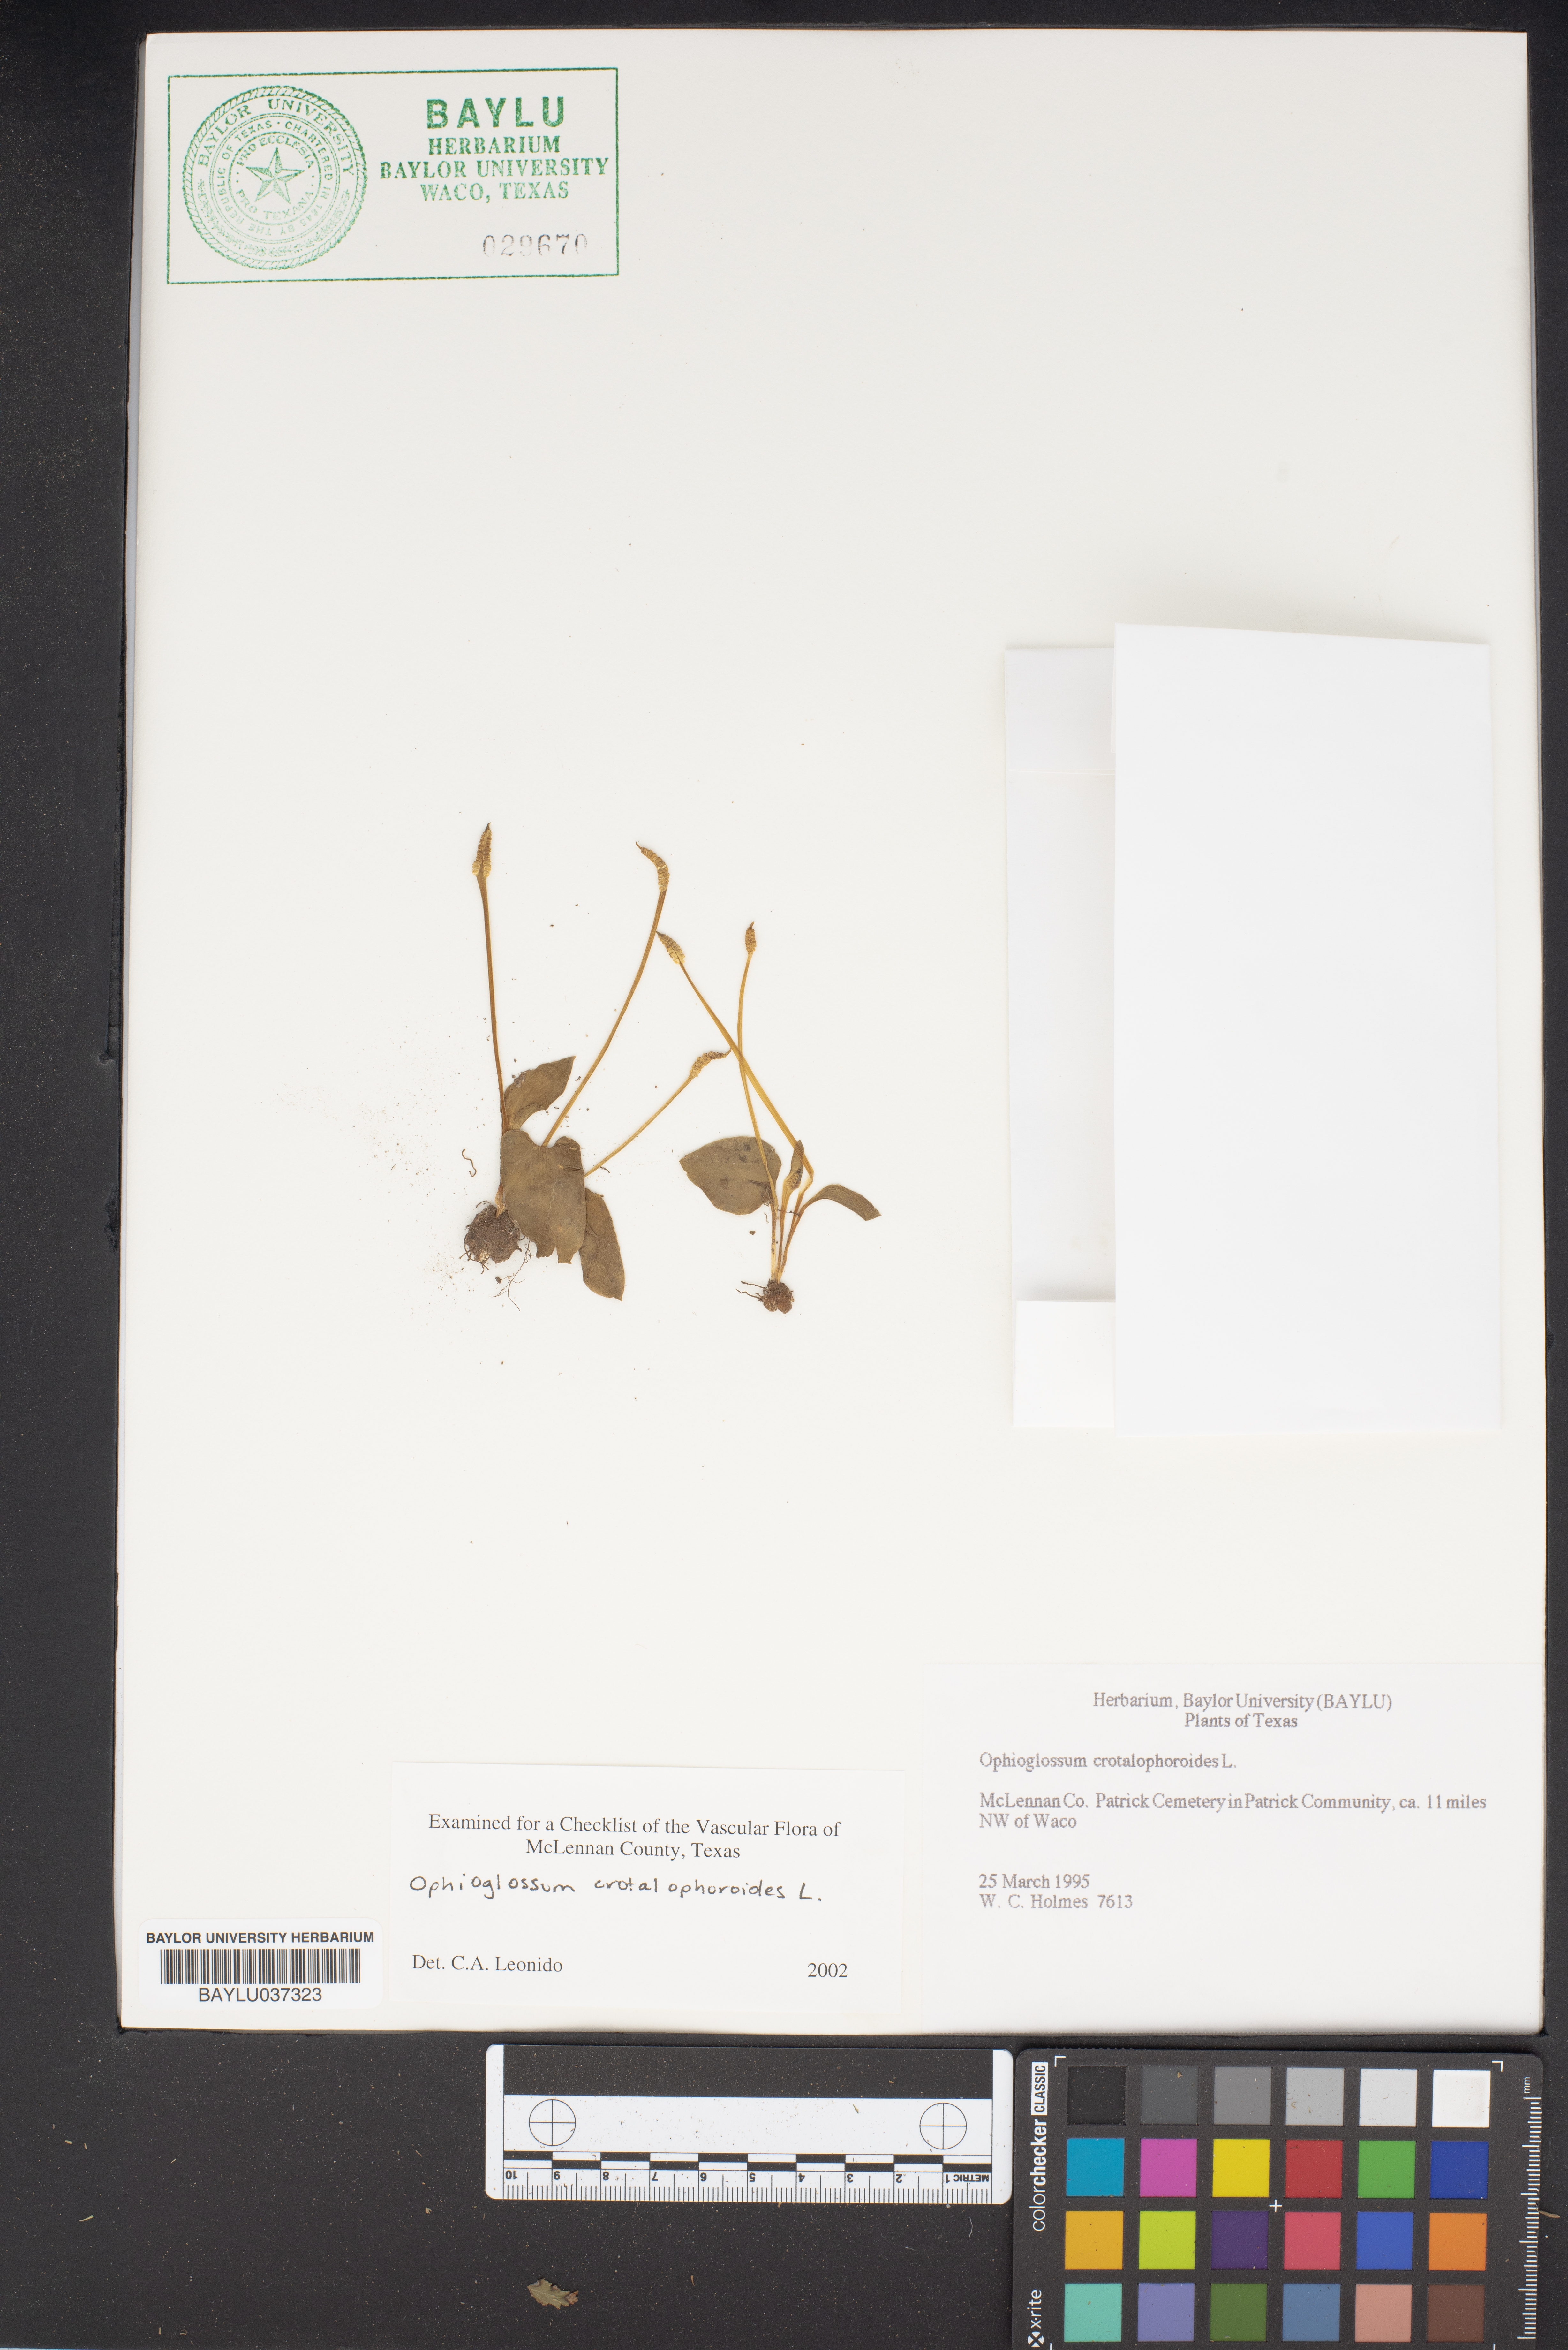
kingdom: Plantae
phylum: Tracheophyta
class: Polypodiopsida
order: Ophioglossales
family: Ophioglossaceae
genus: Ophioglossum
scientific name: Ophioglossum crotalophoroides
